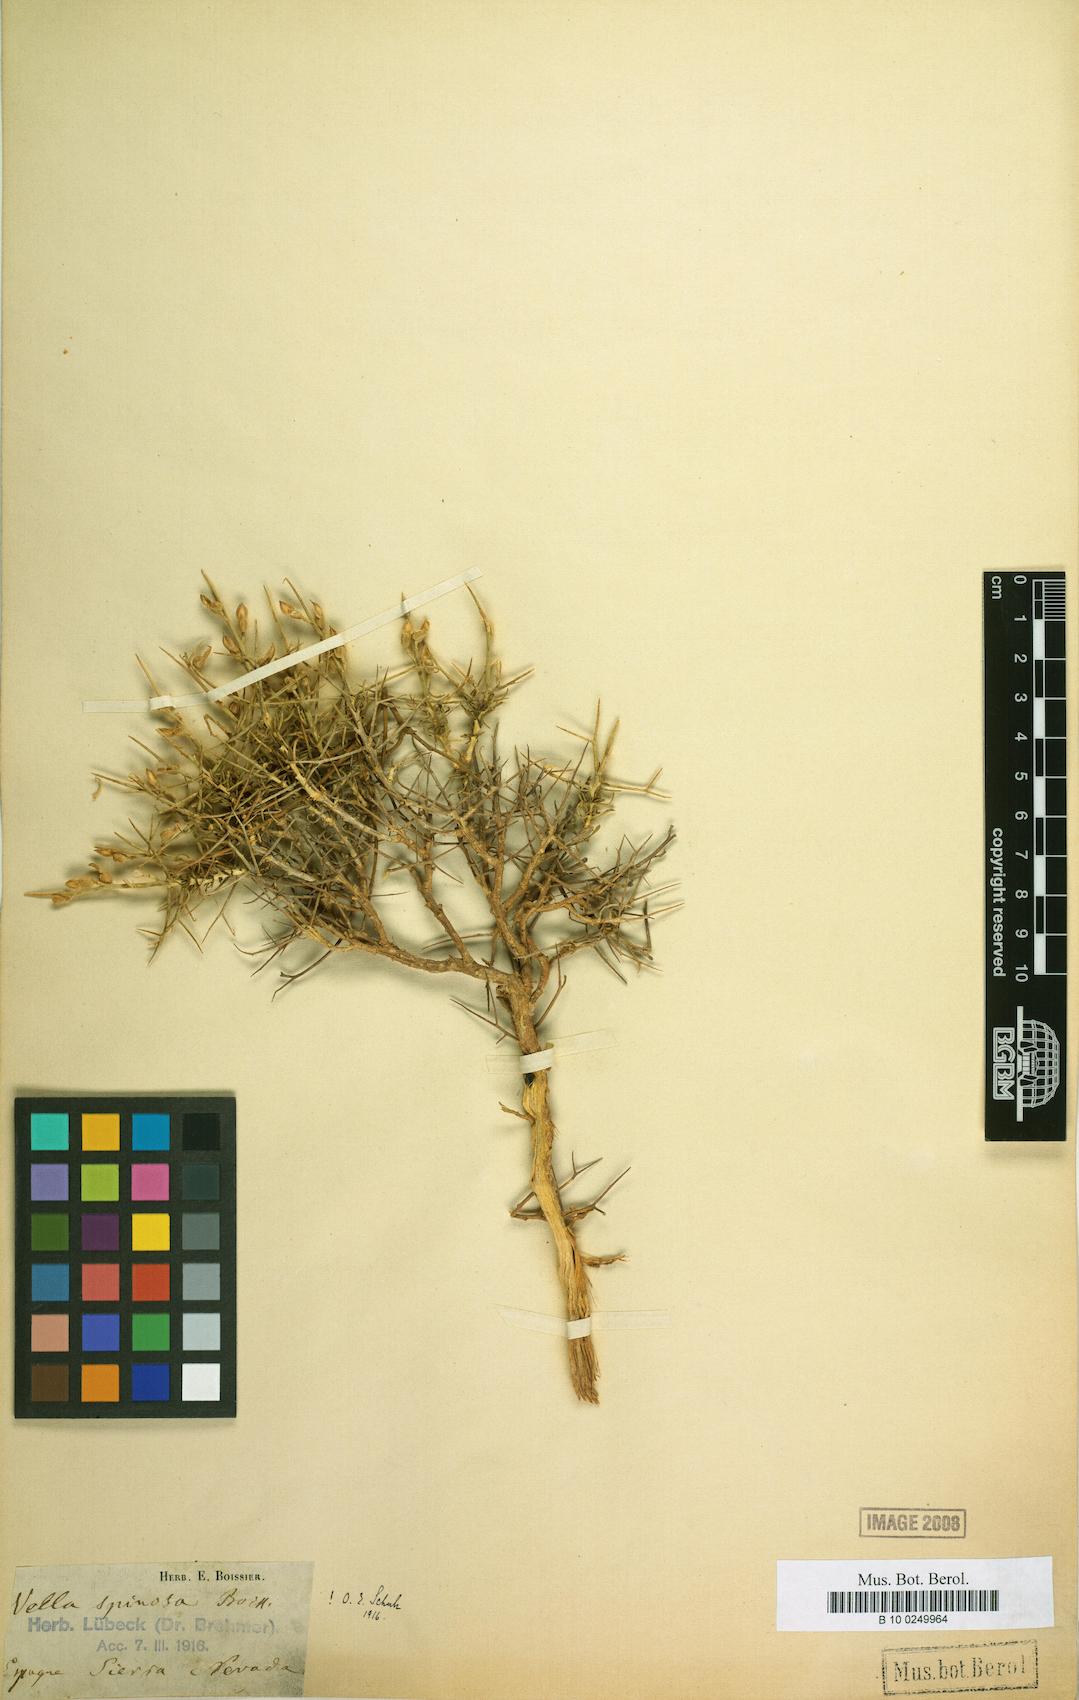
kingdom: Plantae
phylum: Tracheophyta
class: Magnoliopsida
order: Brassicales
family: Brassicaceae
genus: Vella
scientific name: Vella spinosa
